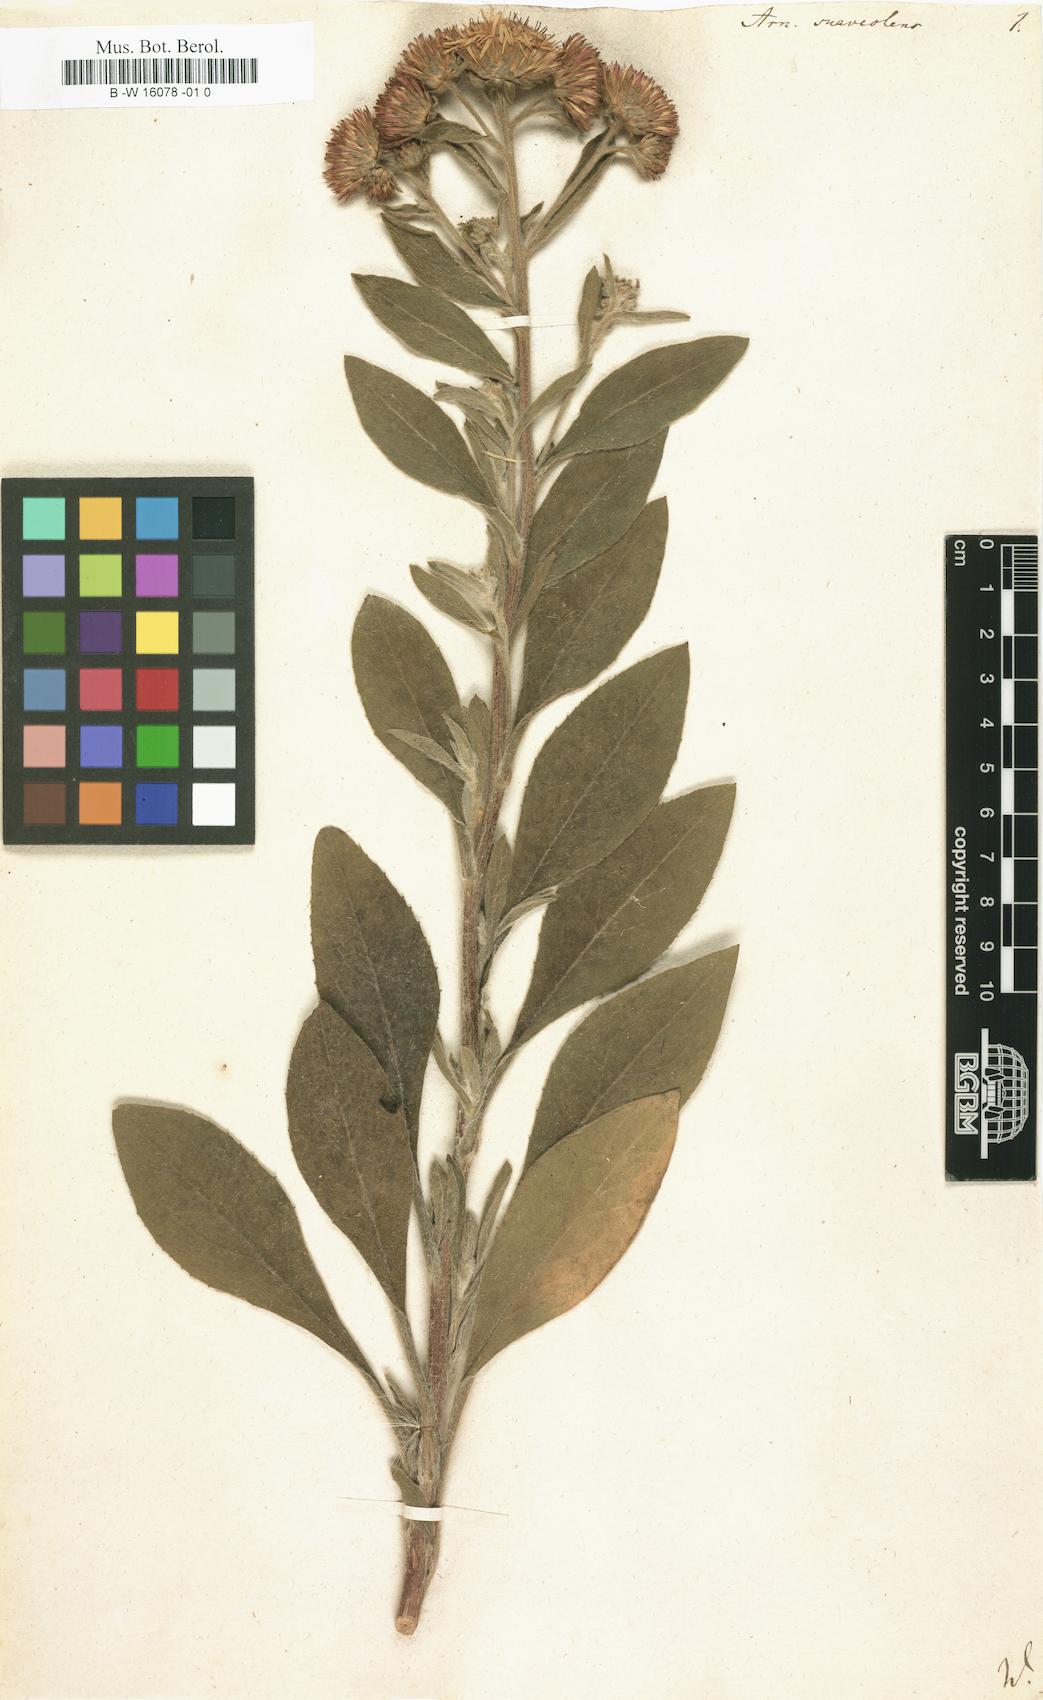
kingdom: Plantae
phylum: Tracheophyta
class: Magnoliopsida
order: Asterales
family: Asteraceae
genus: Arnica
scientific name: Arnica
